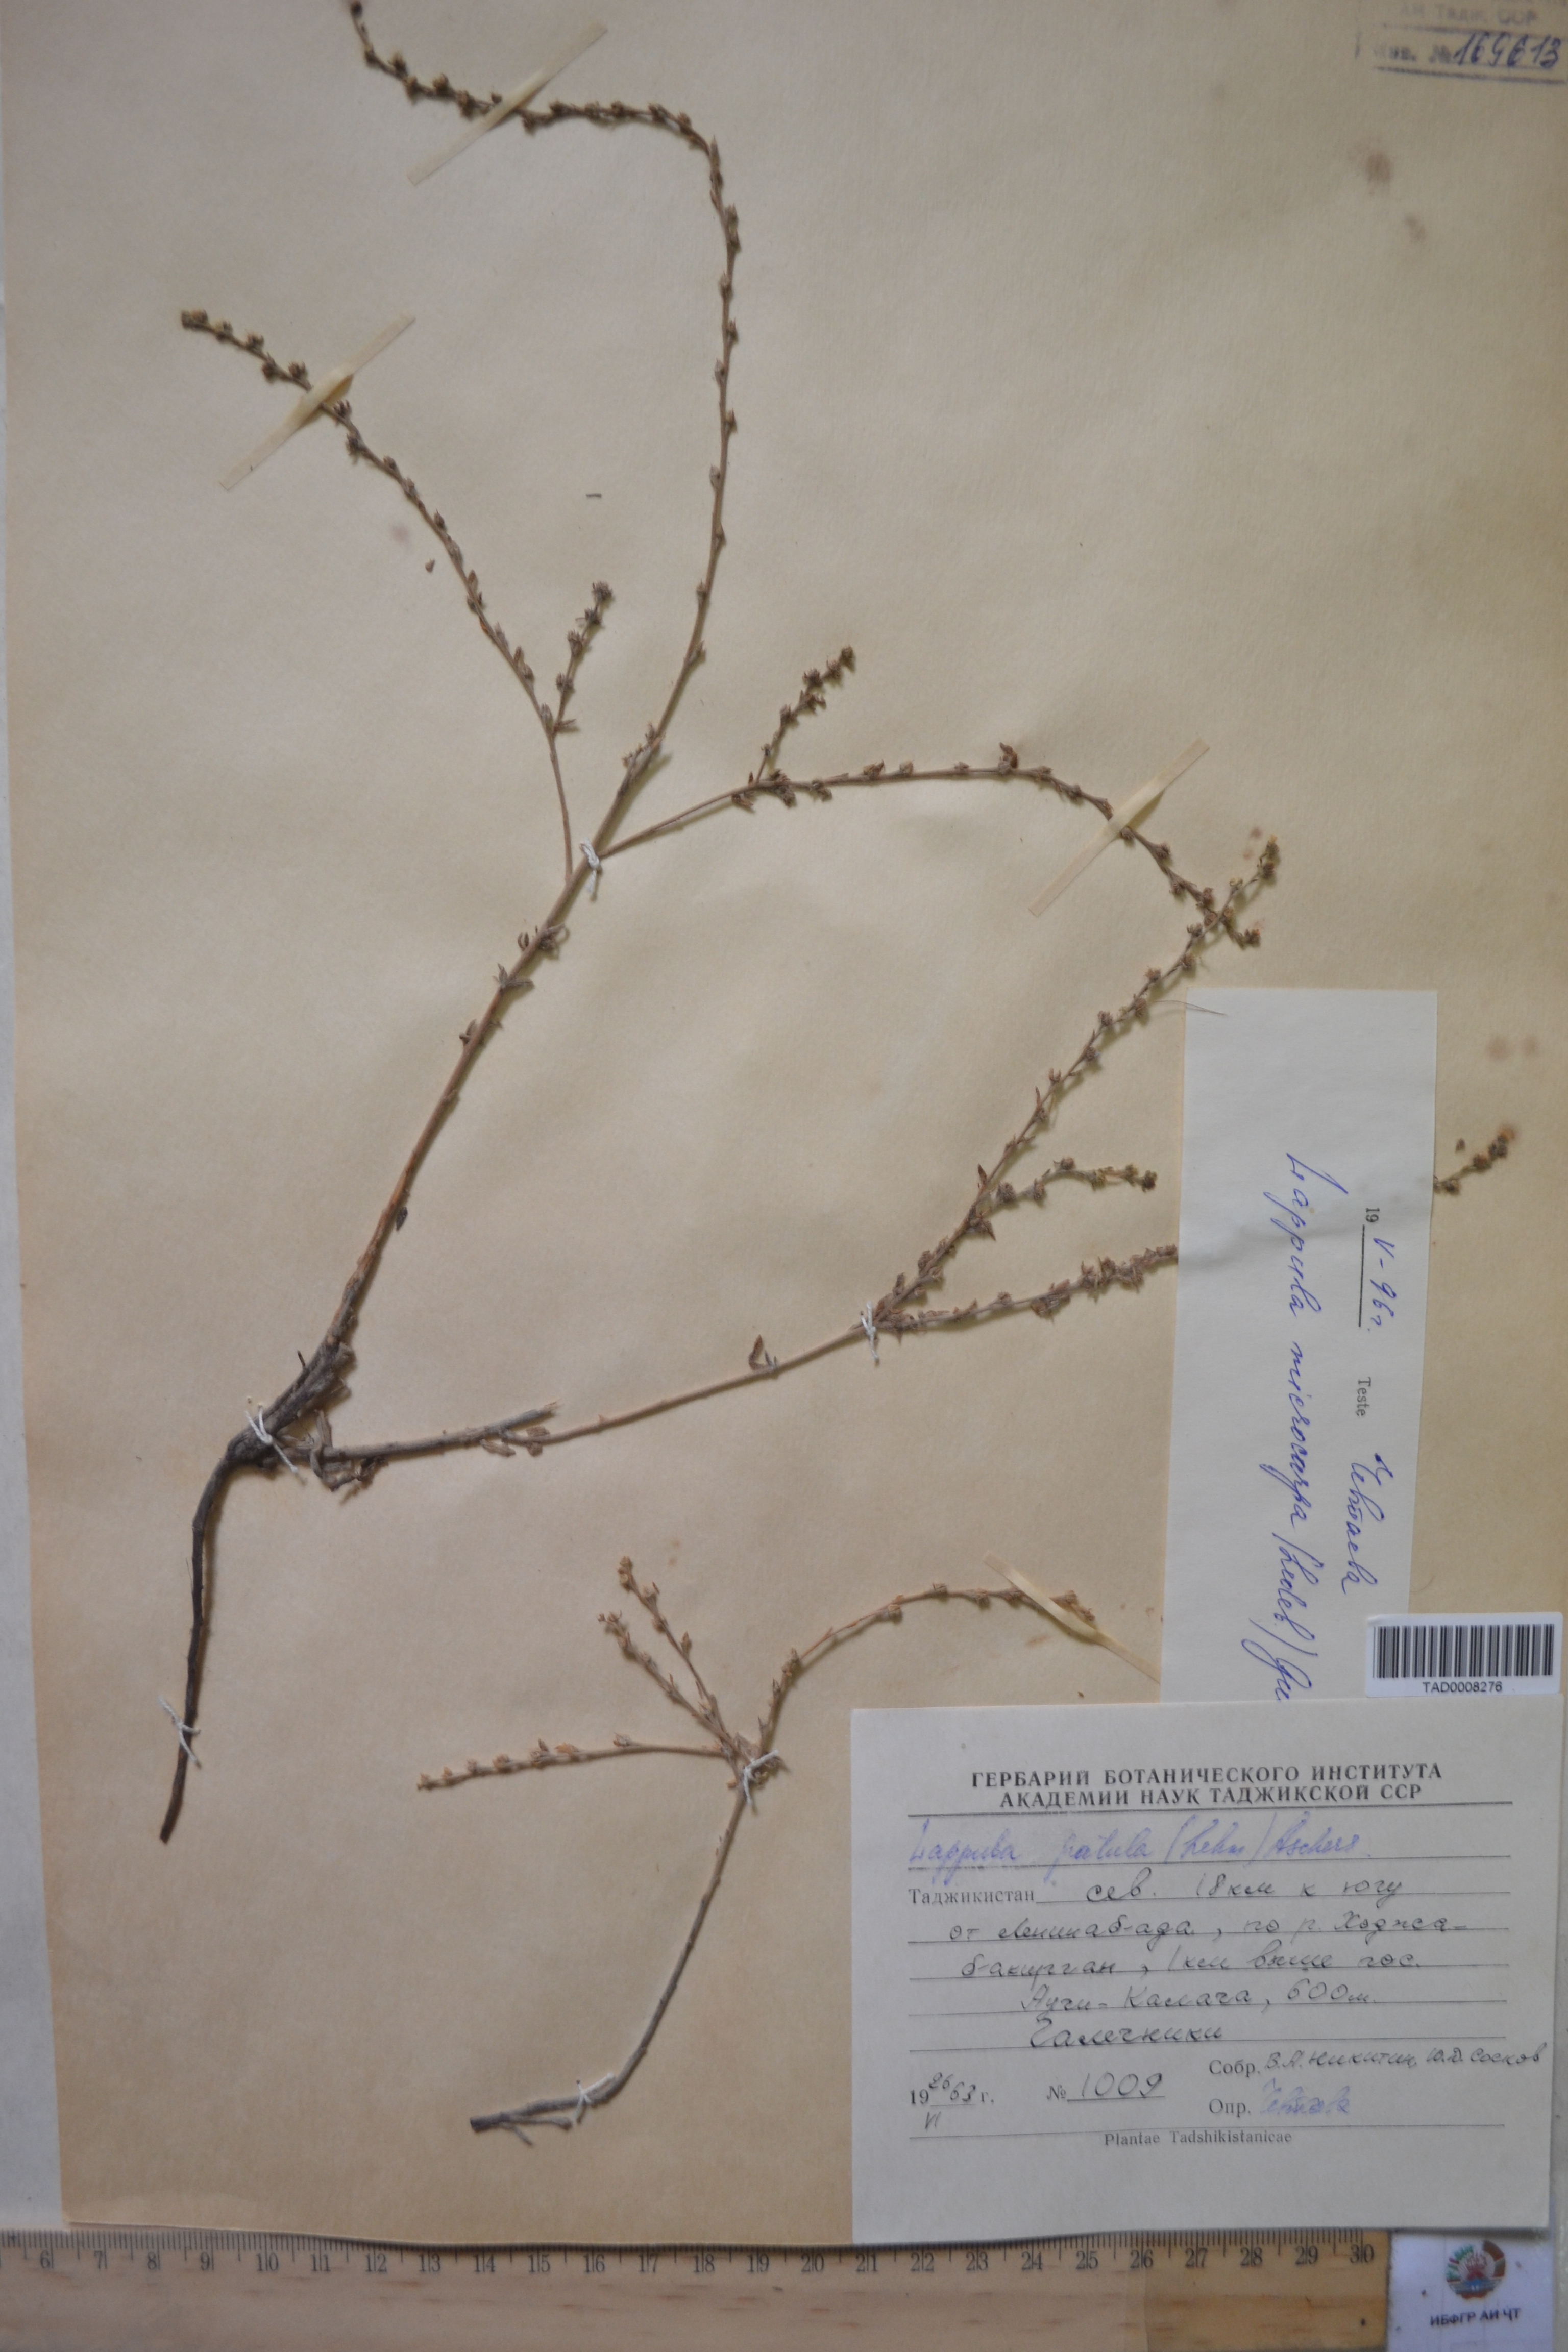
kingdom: Plantae
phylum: Tracheophyta
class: Magnoliopsida
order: Boraginales
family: Boraginaceae
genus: Lappula
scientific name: Lappula patula
